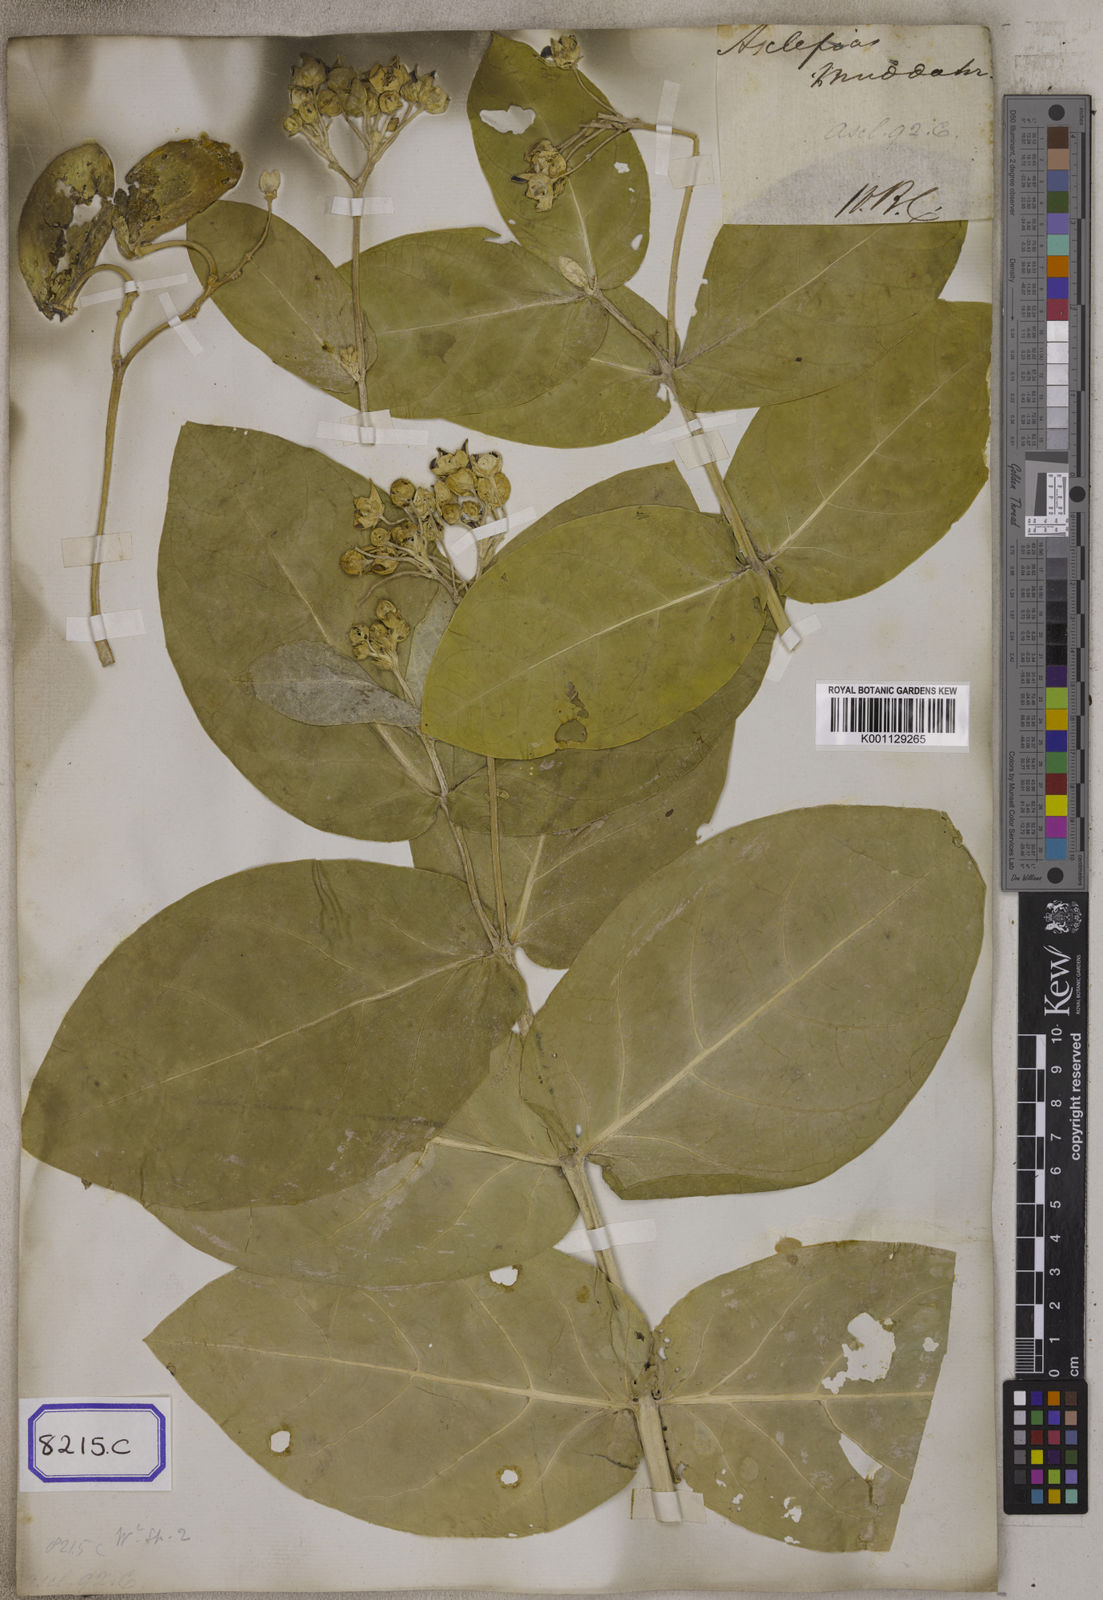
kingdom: Plantae
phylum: Tracheophyta
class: Magnoliopsida
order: Gentianales
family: Apocynaceae
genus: Calotropis
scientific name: Calotropis procera
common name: Roostertree
